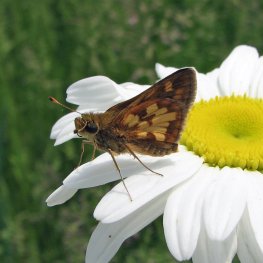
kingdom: Animalia
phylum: Arthropoda
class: Insecta
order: Lepidoptera
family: Hesperiidae
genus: Polites
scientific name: Polites coras
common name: Peck's Skipper
